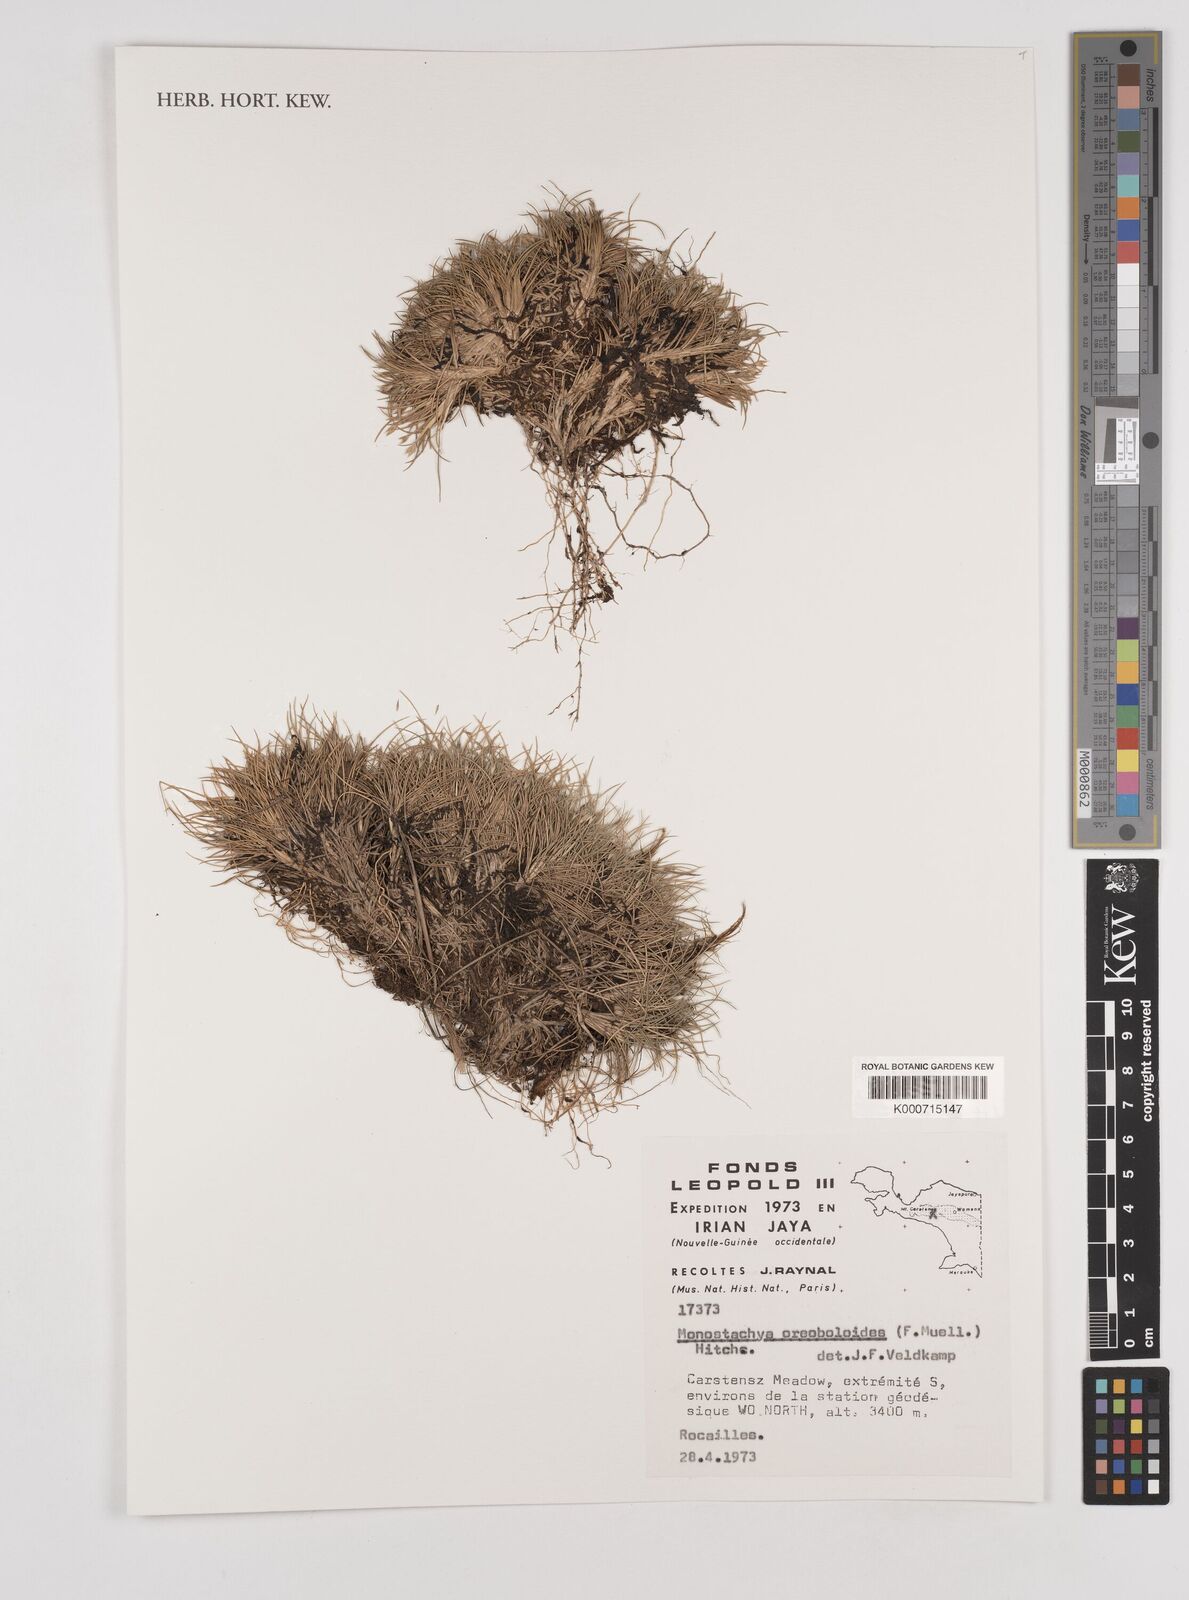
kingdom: Plantae
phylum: Tracheophyta
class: Liliopsida
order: Poales
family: Poaceae
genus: Rytidosperma
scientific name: Rytidosperma oreoboloides
